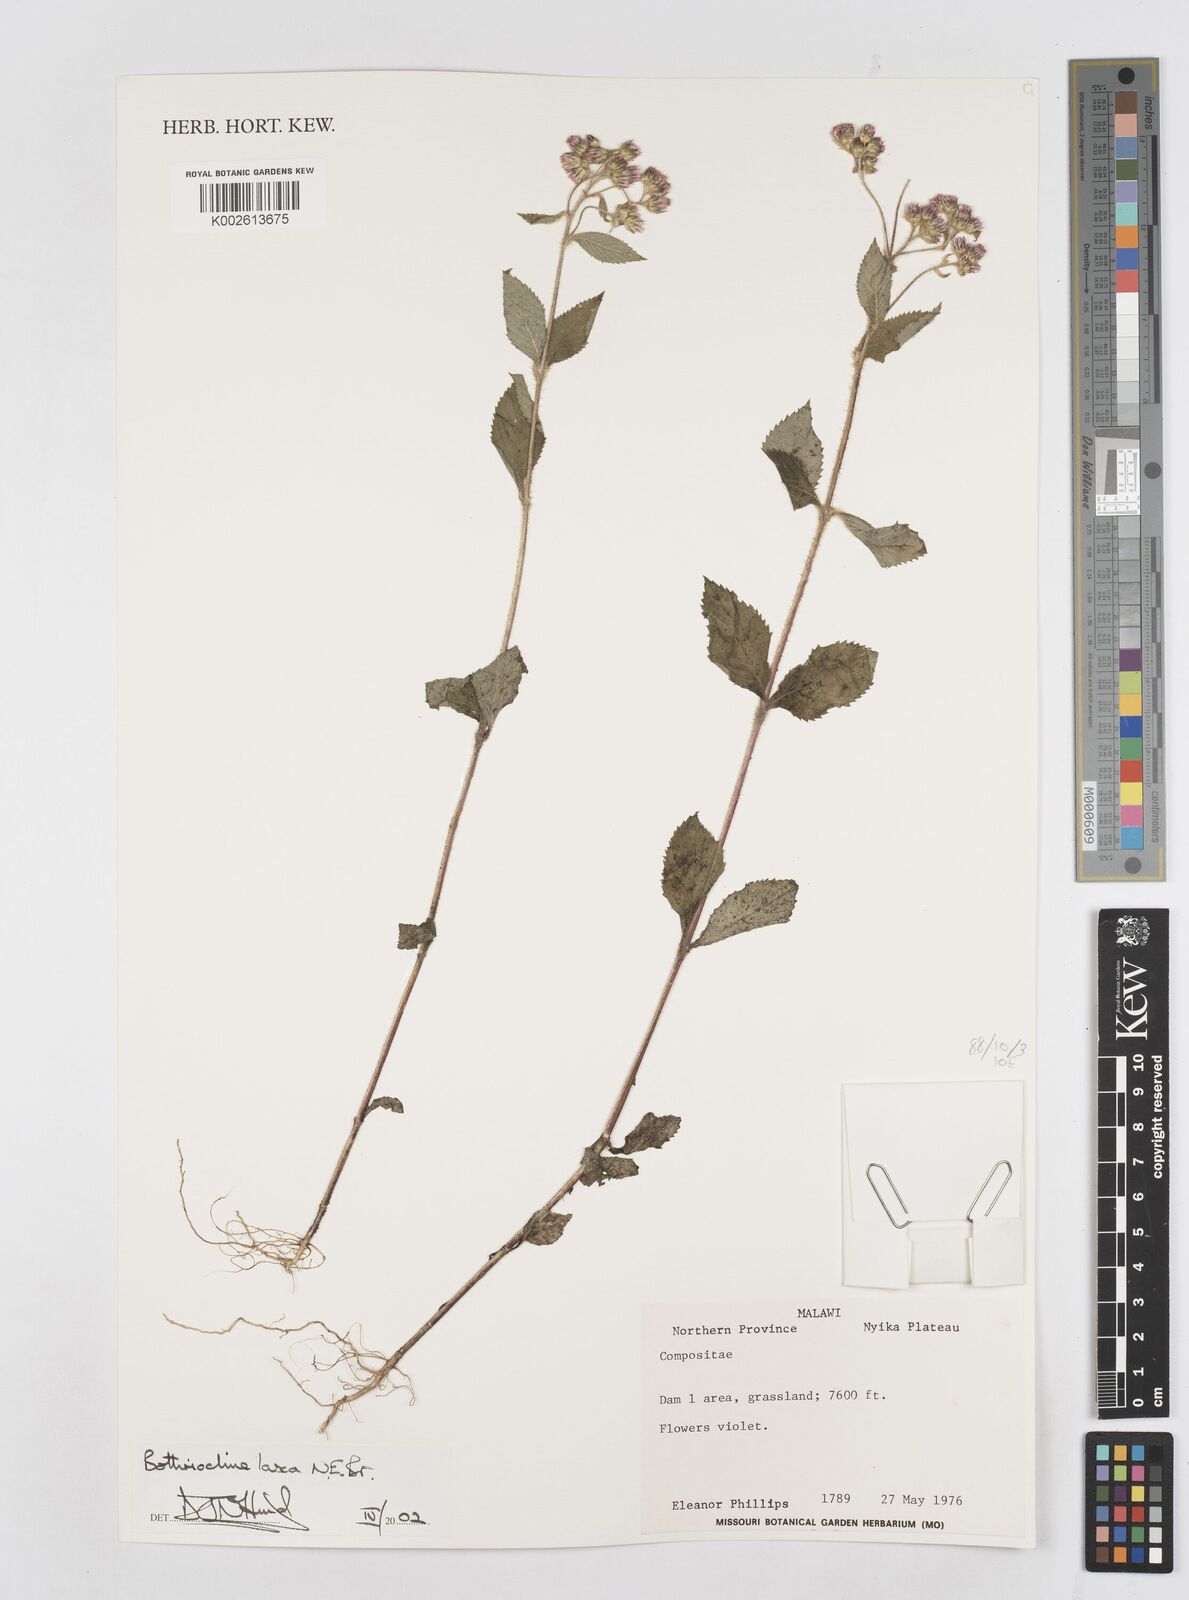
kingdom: Plantae
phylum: Tracheophyta
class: Magnoliopsida
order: Asterales
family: Asteraceae
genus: Bothriocline
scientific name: Bothriocline laxa
